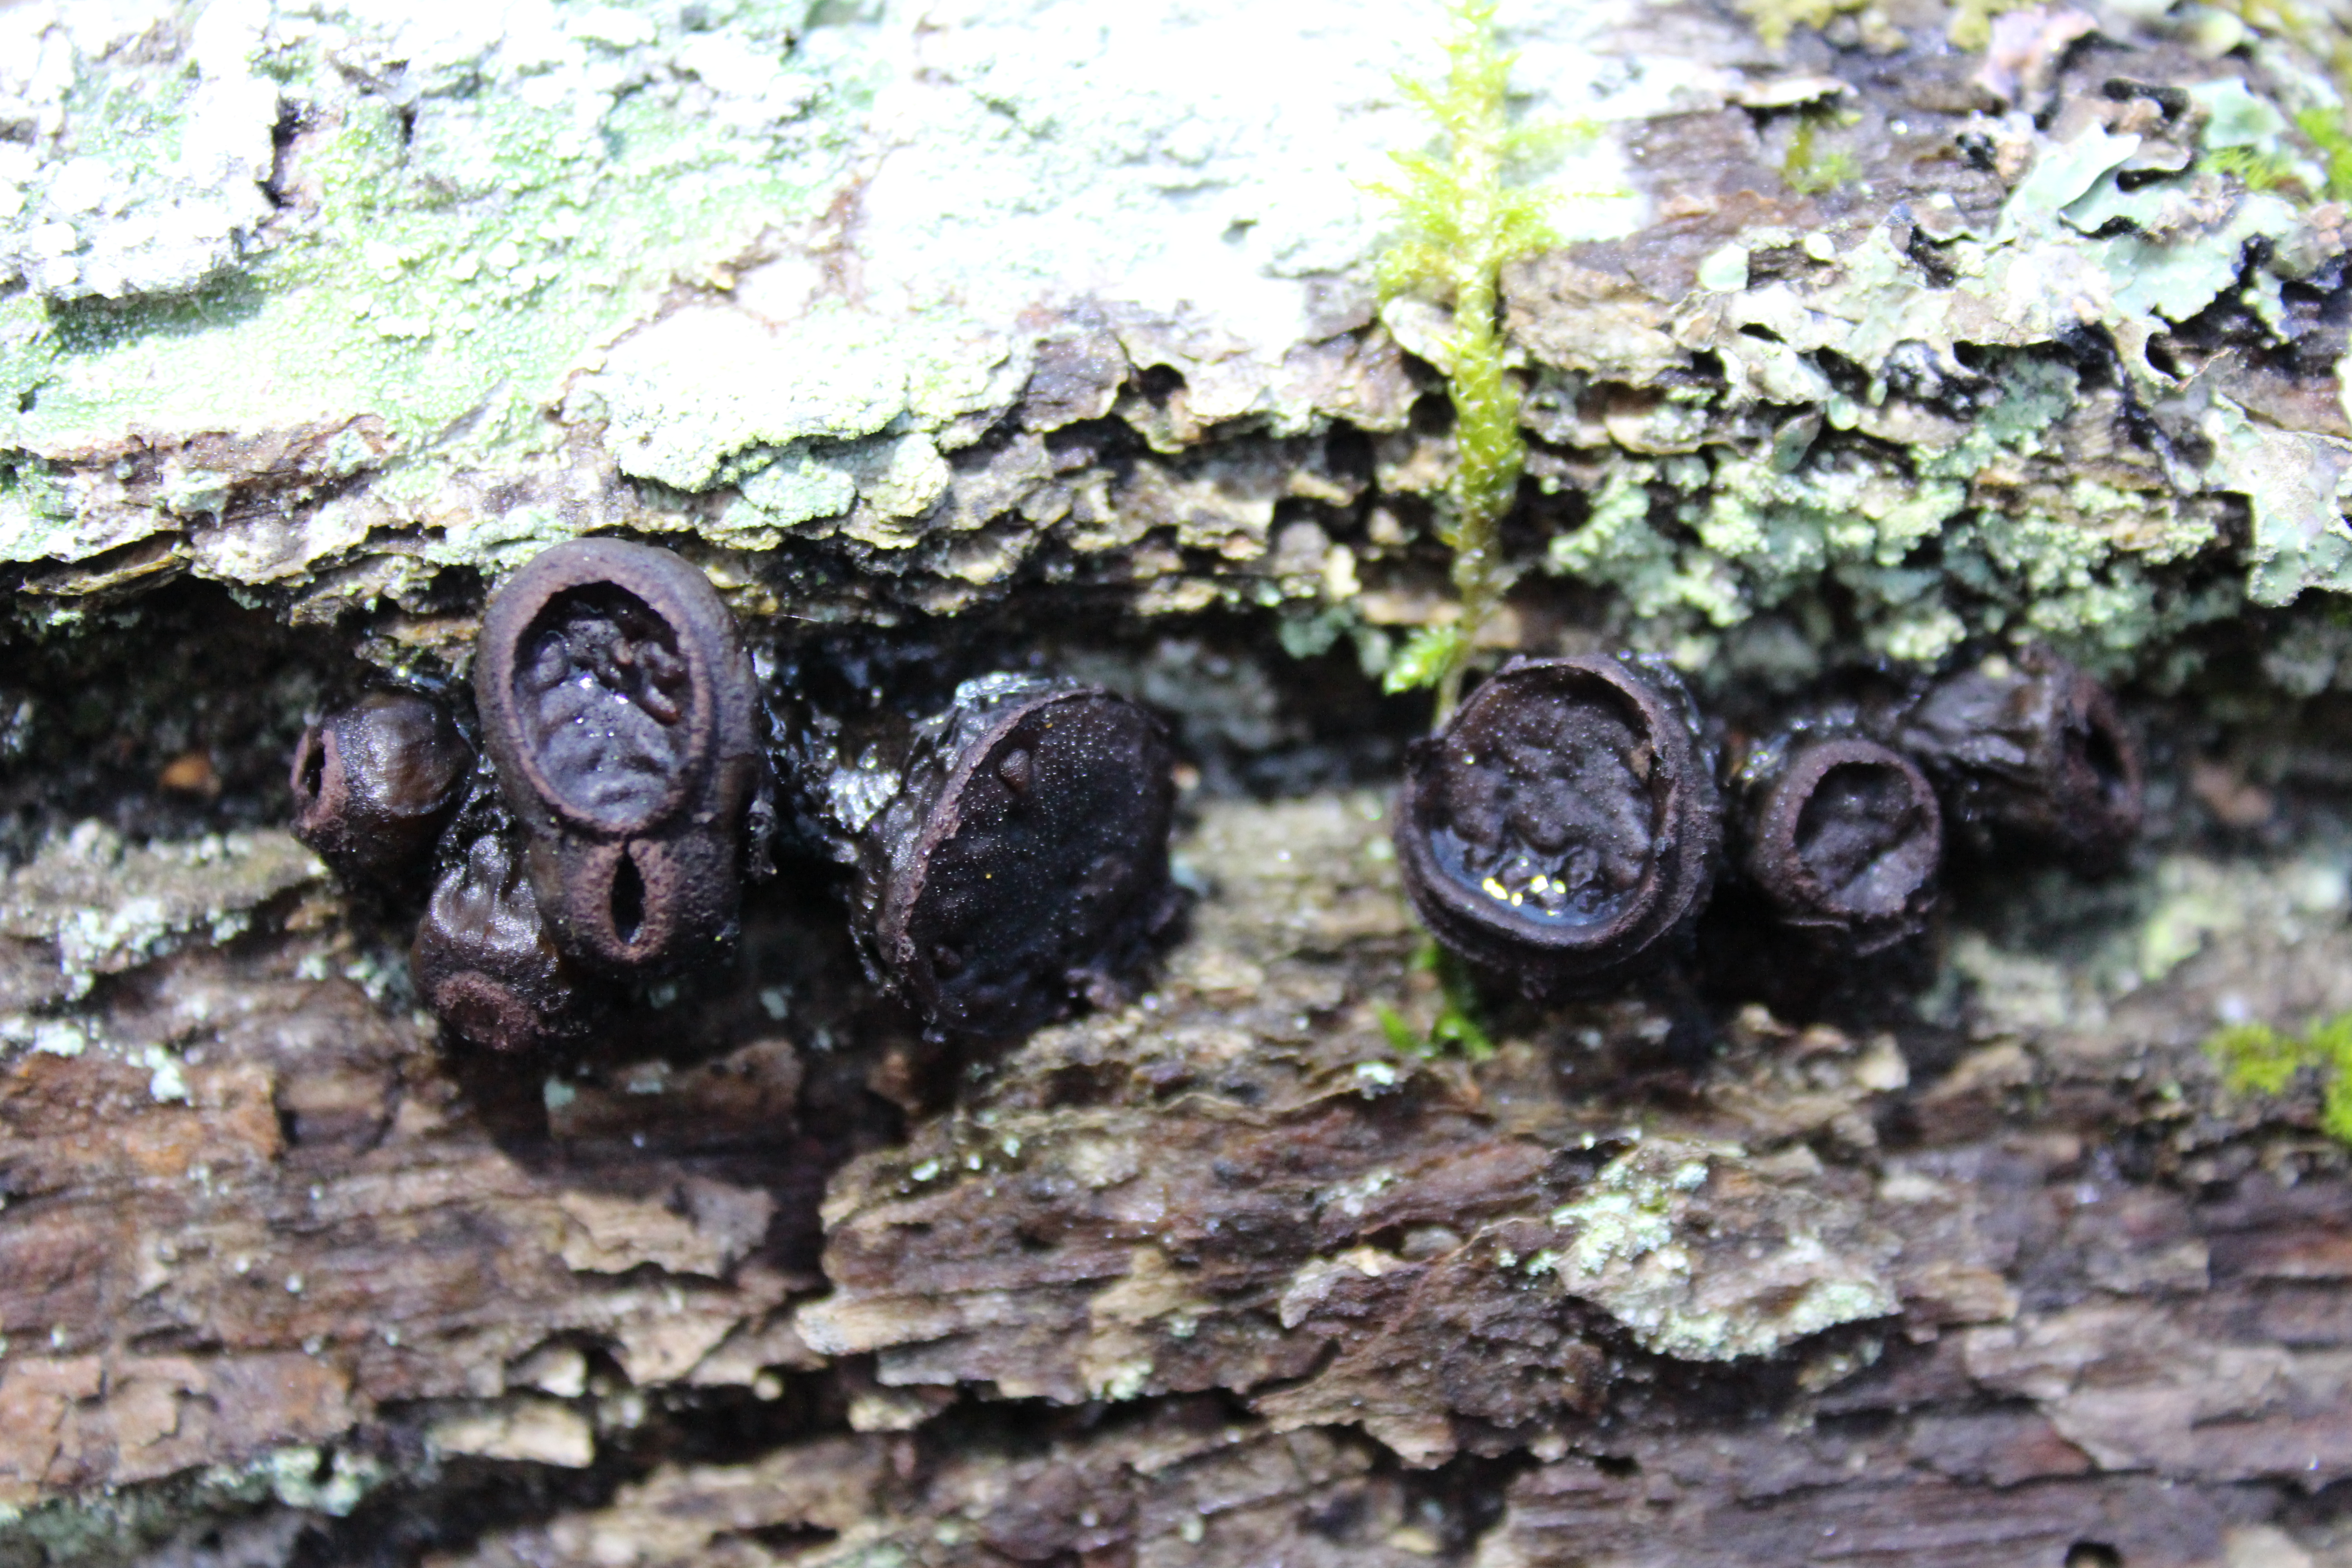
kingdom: Fungi
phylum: Ascomycota
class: Leotiomycetes
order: Phacidiales
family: Phacidiaceae
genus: Bulgaria
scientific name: Bulgaria inquinans
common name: Black bulgar
